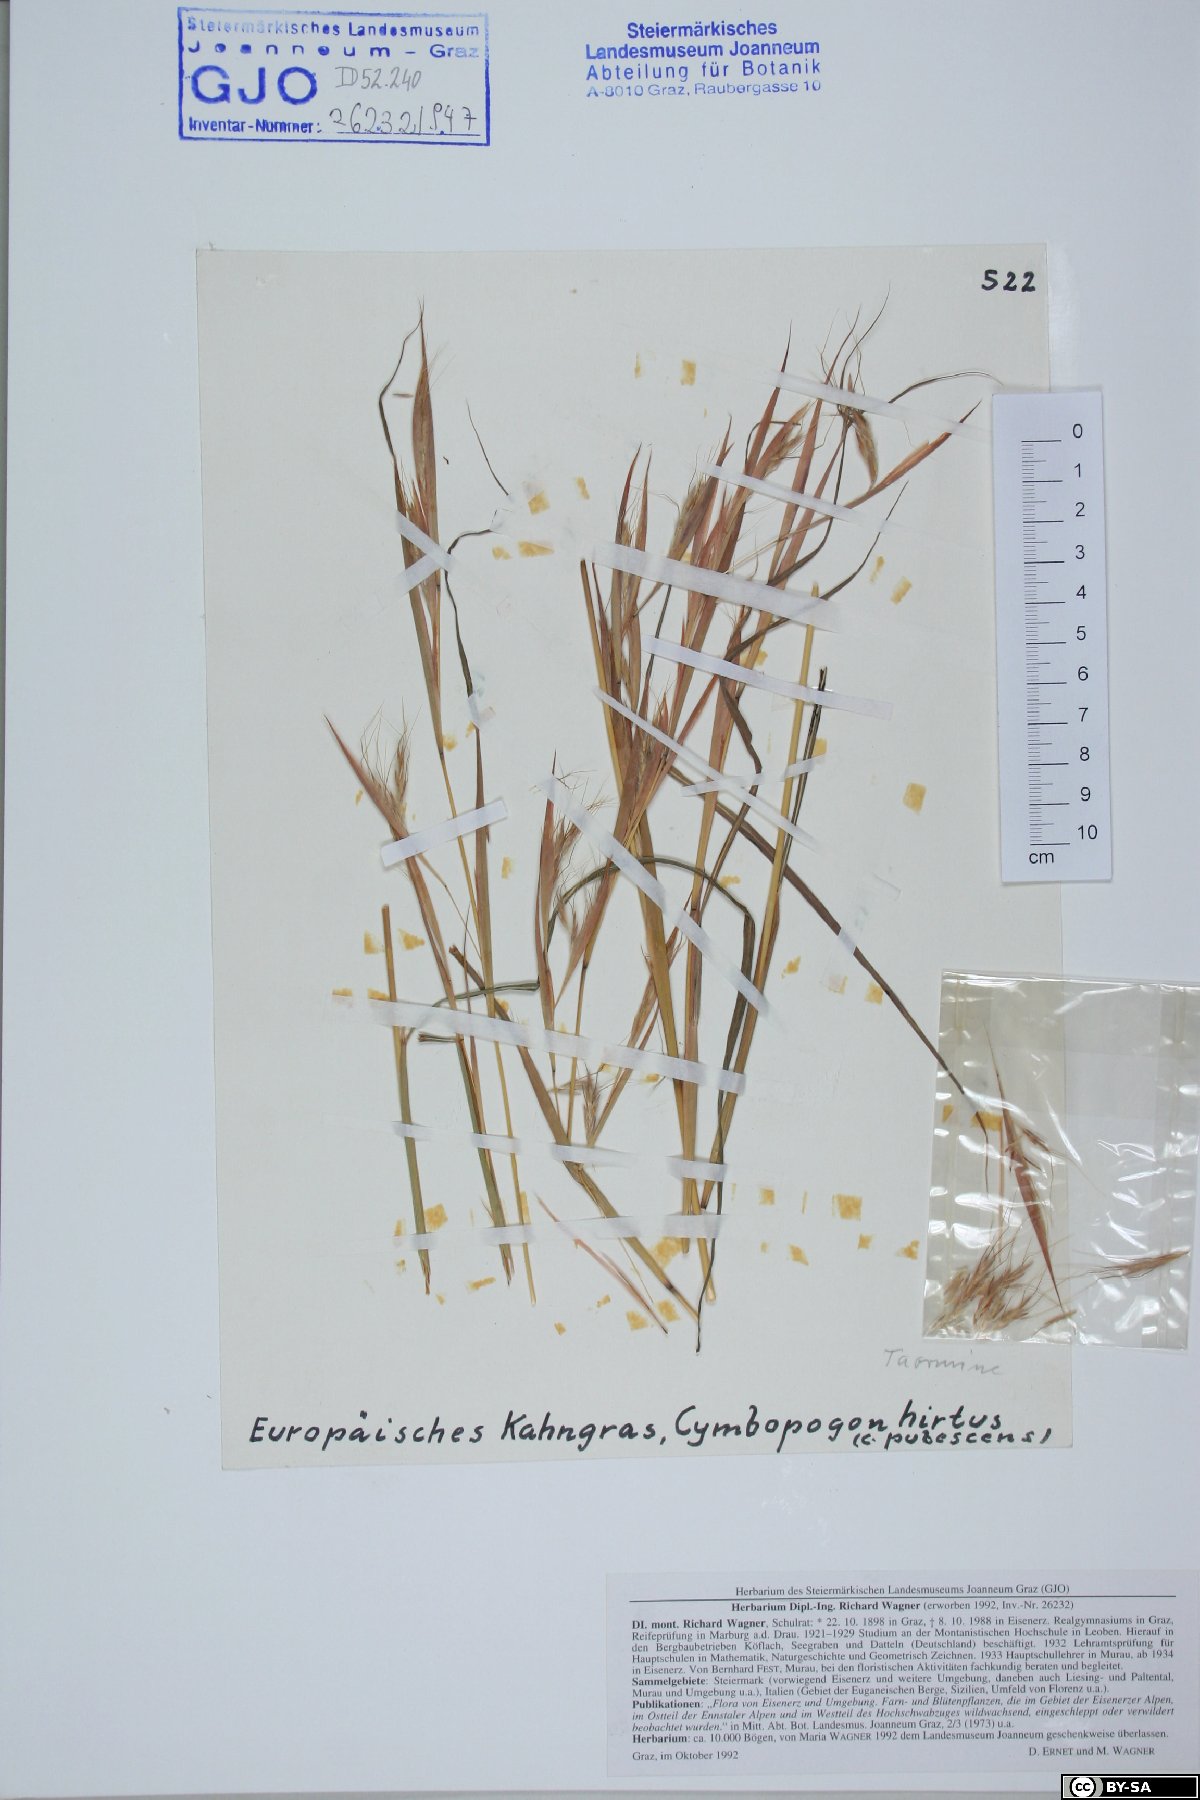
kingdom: Plantae
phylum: Tracheophyta
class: Liliopsida
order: Poales
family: Poaceae
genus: Hyparrhenia
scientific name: Hyparrhenia hirta
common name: Thatching grass
